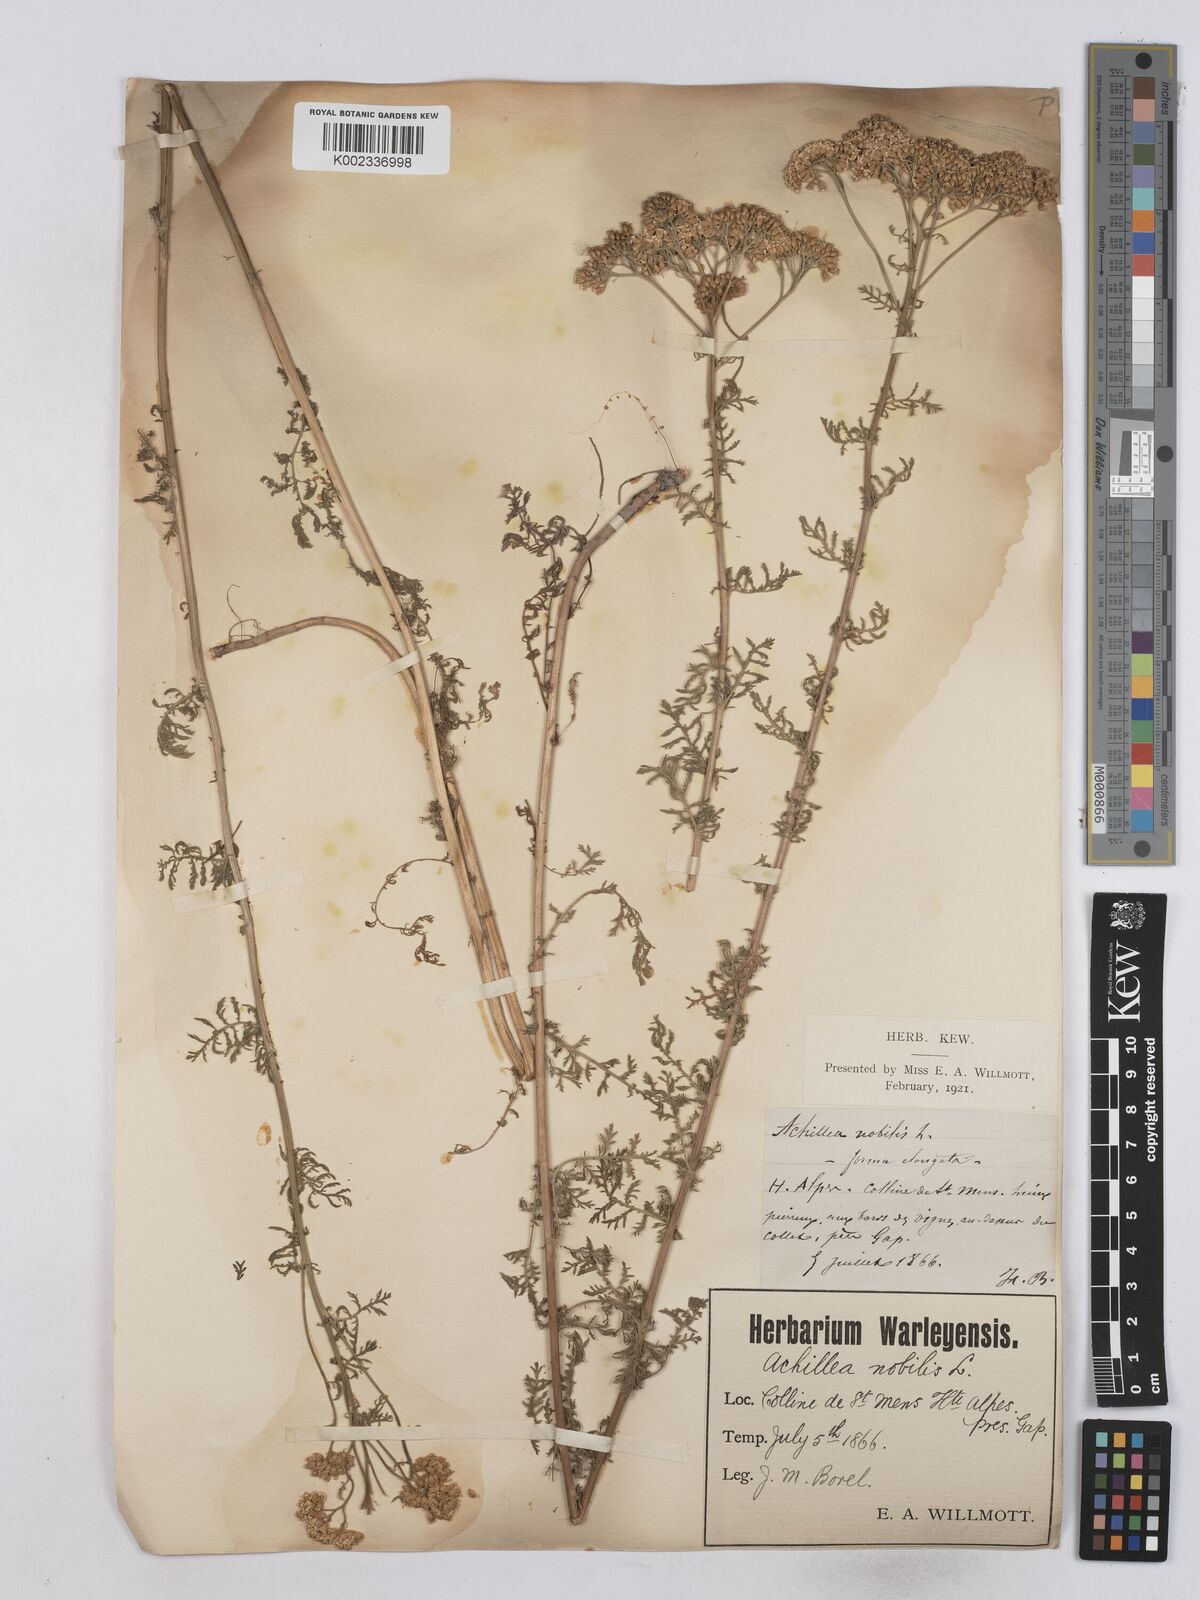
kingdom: Plantae
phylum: Tracheophyta
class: Magnoliopsida
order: Asterales
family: Asteraceae
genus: Achillea
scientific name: Achillea nobilis
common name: Noble yarrow
